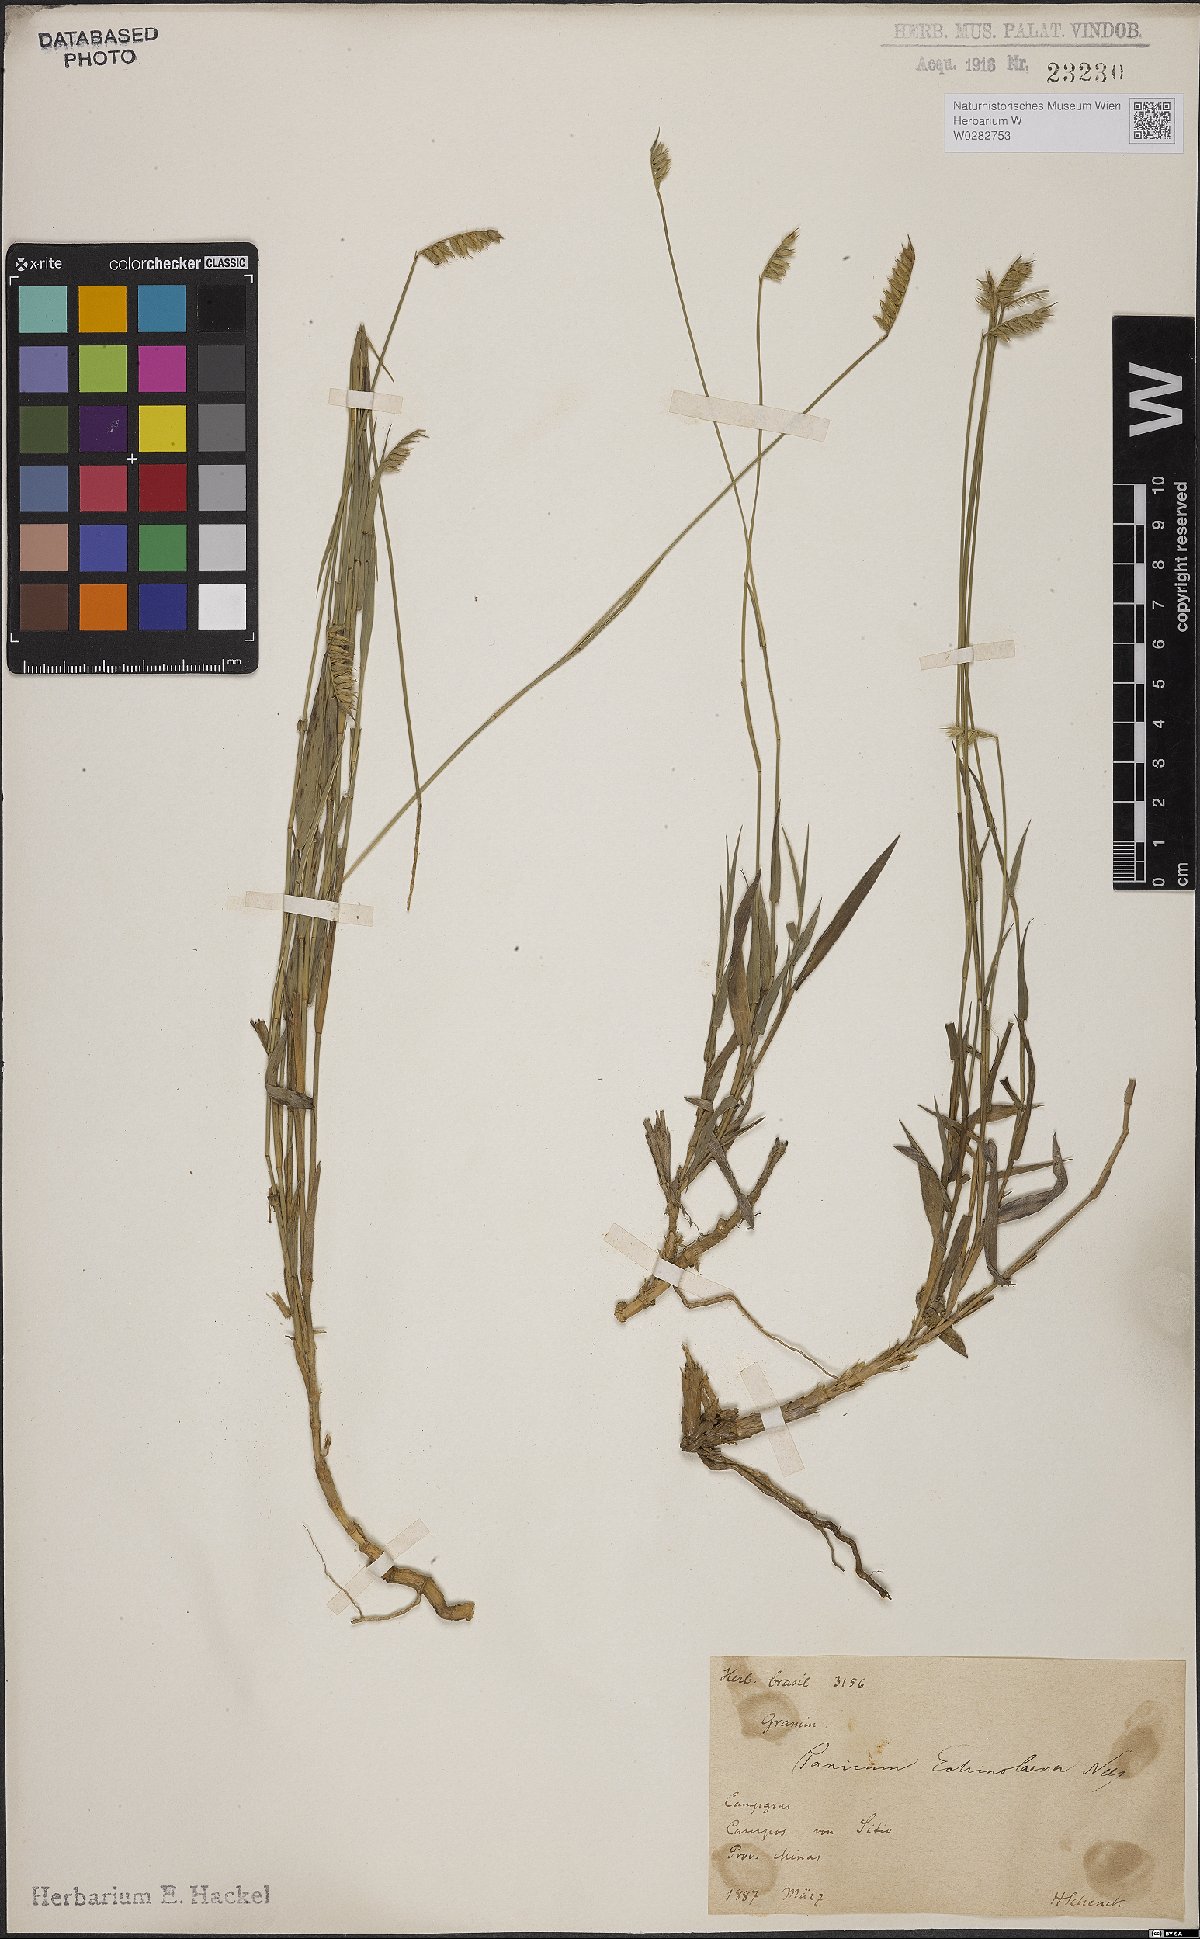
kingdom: Plantae
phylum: Tracheophyta
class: Liliopsida
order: Poales
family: Poaceae
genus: Echinolaena
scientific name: Echinolaena inflexa
